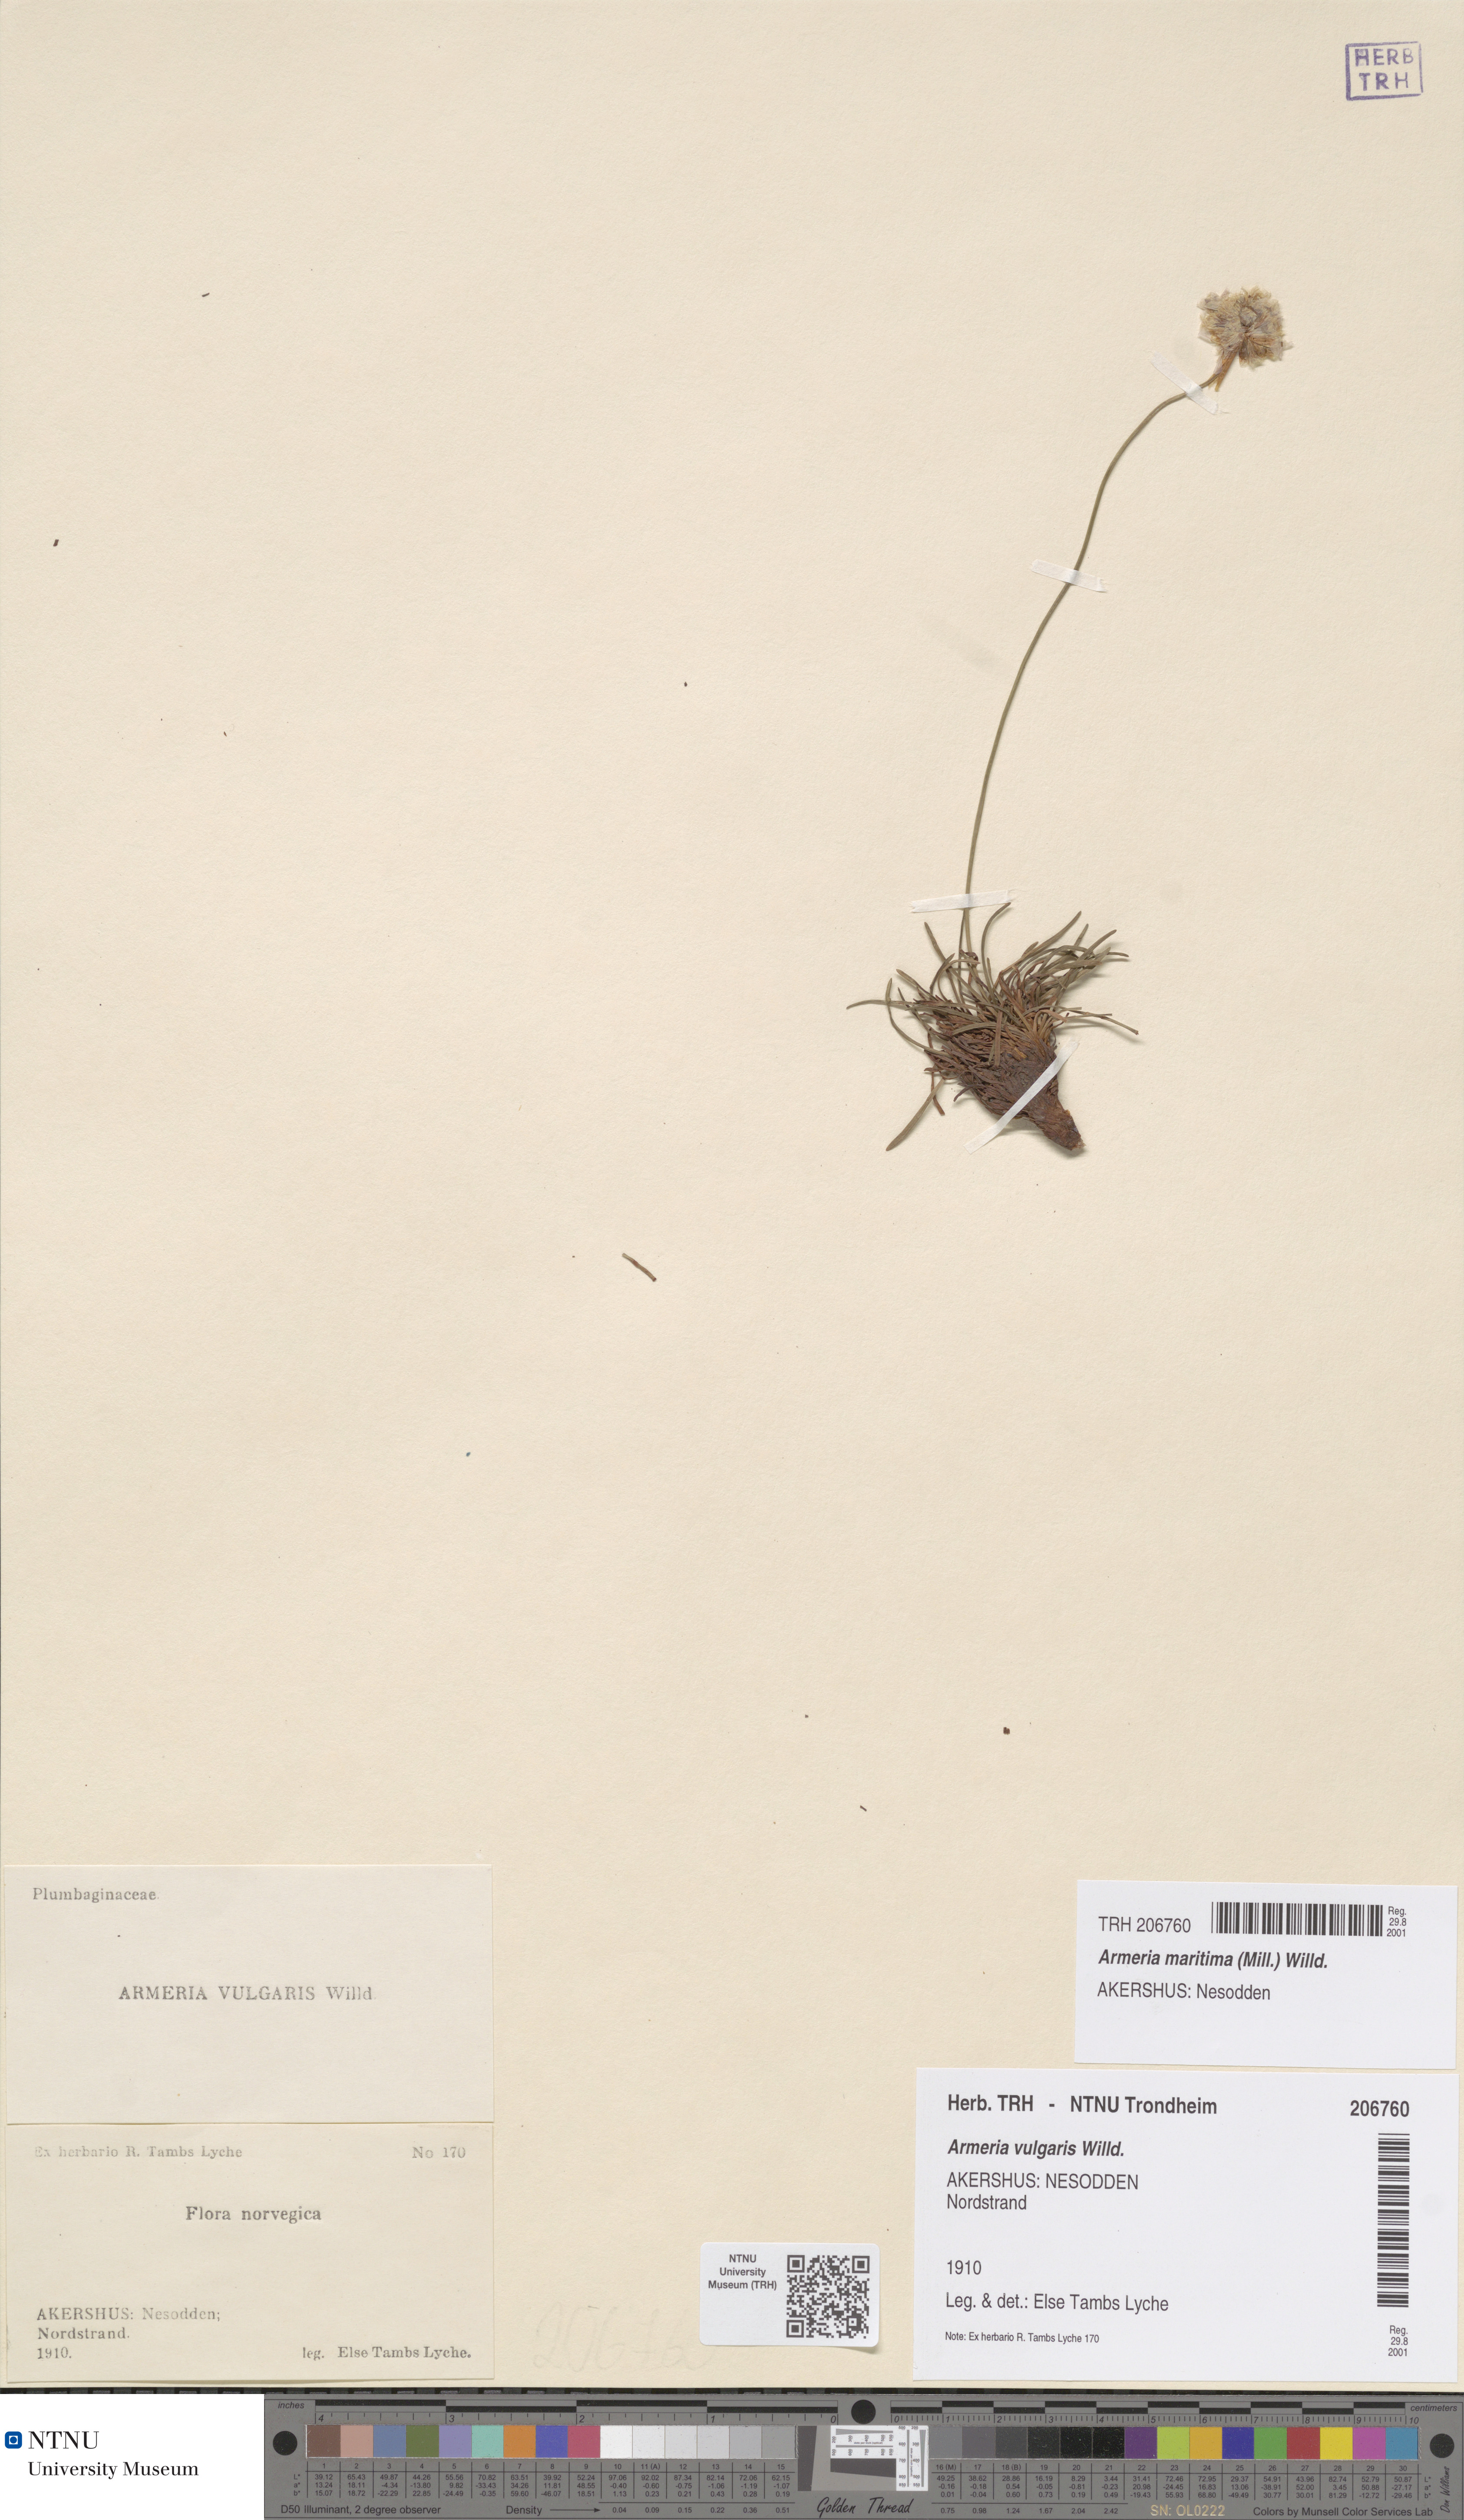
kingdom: Plantae
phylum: Tracheophyta
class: Magnoliopsida
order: Caryophyllales
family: Plumbaginaceae
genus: Armeria
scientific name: Armeria maritima
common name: Thrift
